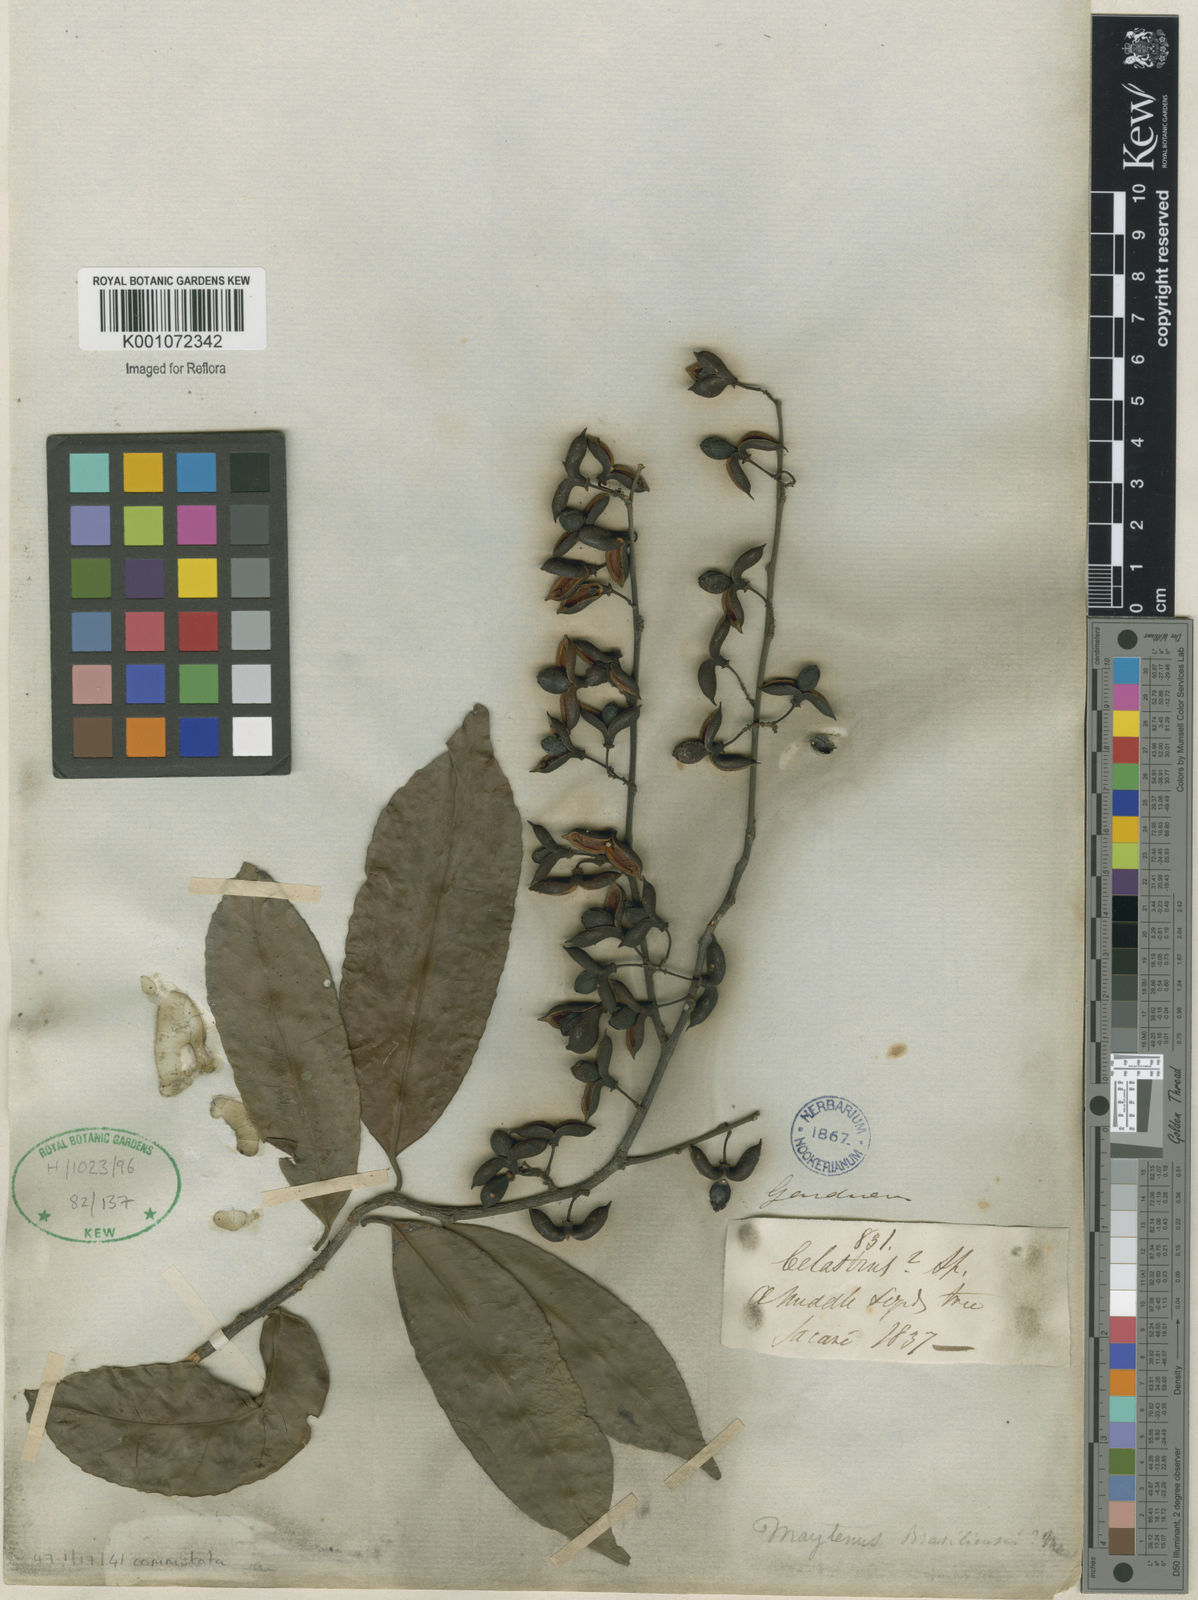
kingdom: Plantae
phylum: Tracheophyta
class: Magnoliopsida
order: Celastrales
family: Celastraceae
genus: Monteverdia
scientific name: Monteverdia brasiliensis
